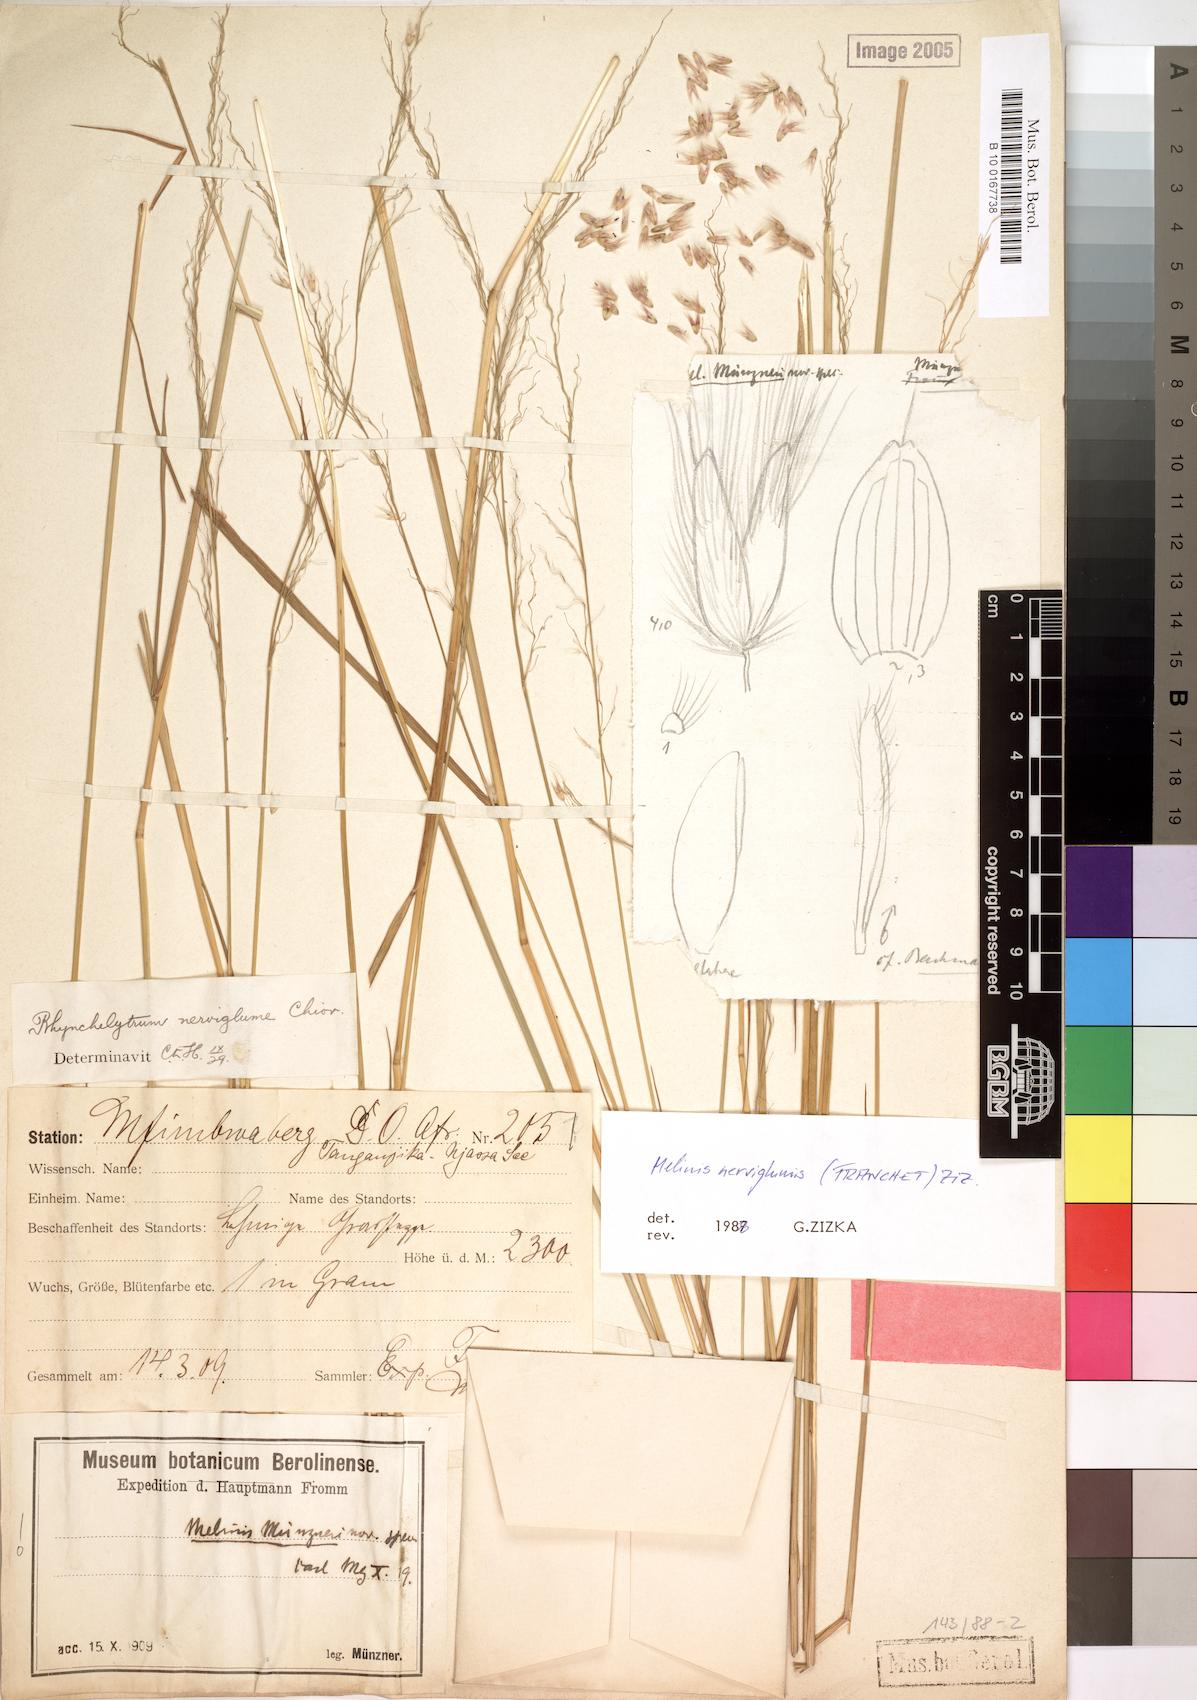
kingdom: Plantae
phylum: Tracheophyta
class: Liliopsida
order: Poales
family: Poaceae
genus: Melinis
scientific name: Melinis nerviglumis
